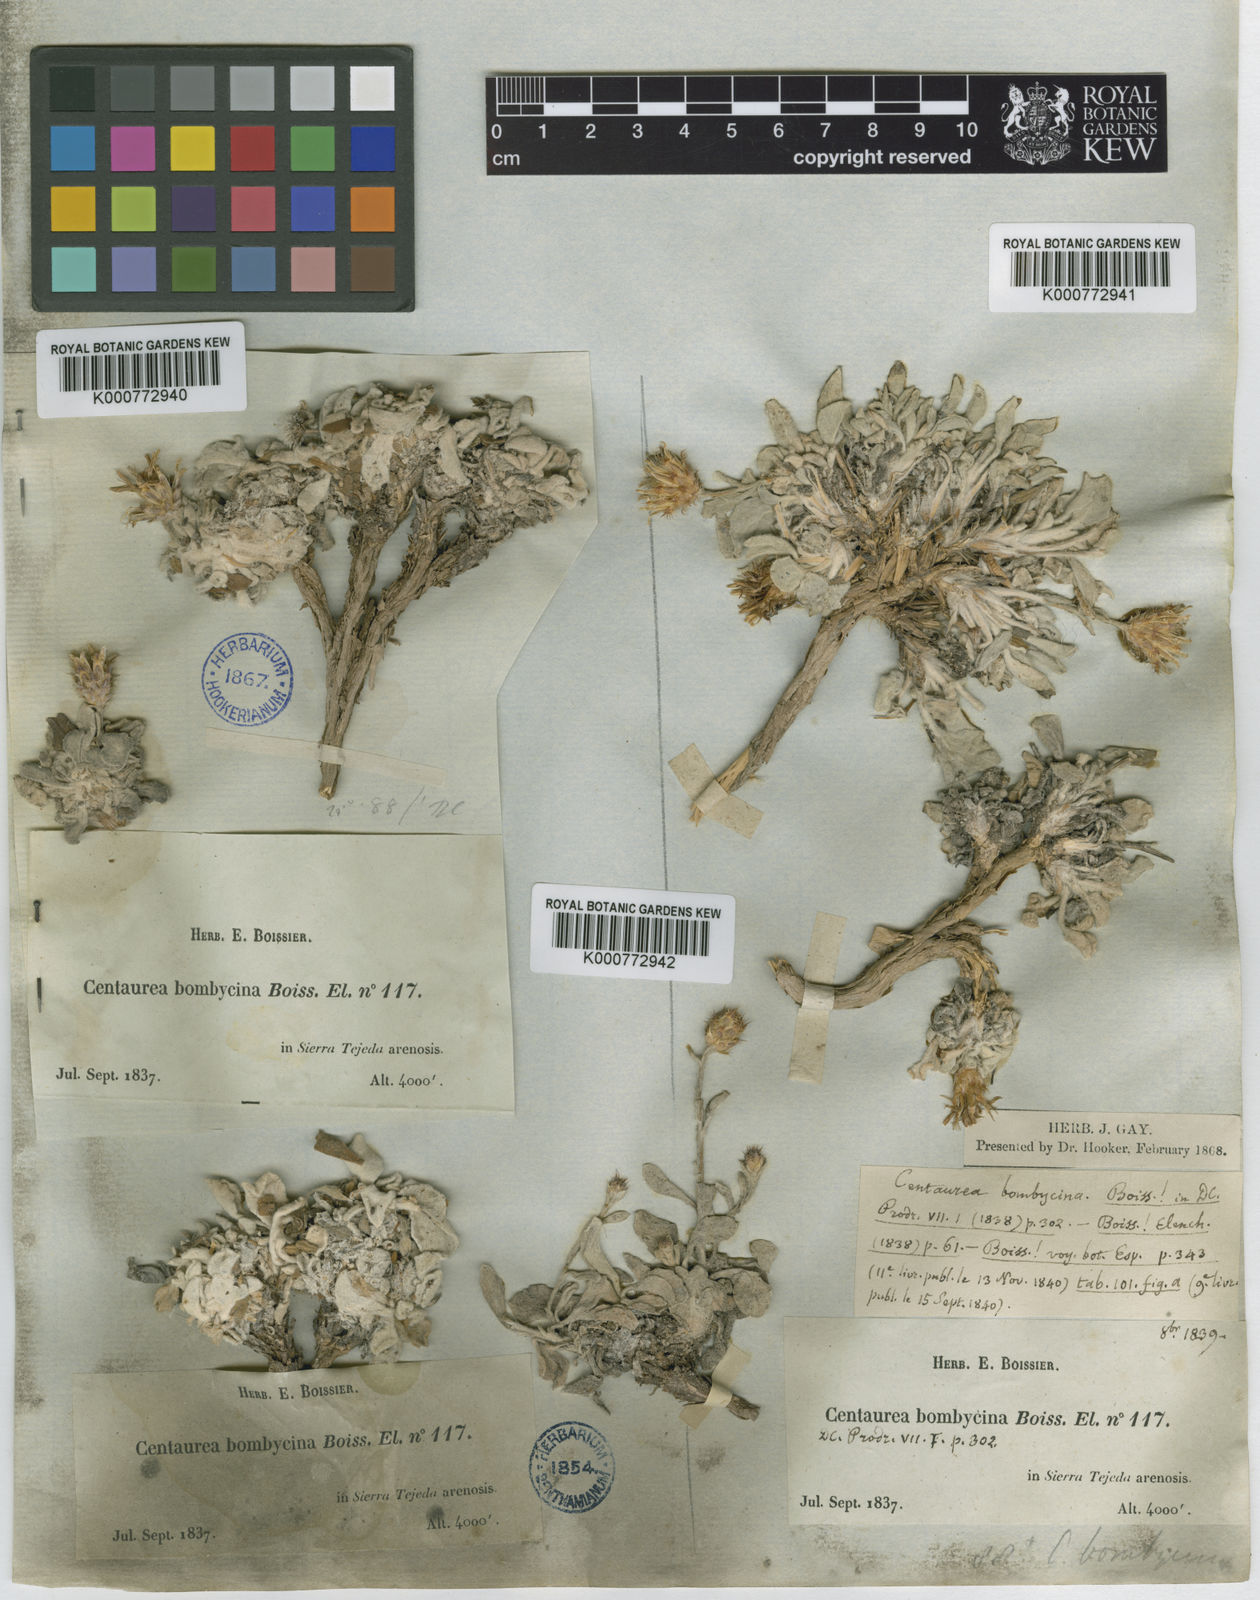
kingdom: Plantae
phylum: Tracheophyta
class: Magnoliopsida
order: Asterales
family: Asteraceae
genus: Centaurea
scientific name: Centaurea bombycina
